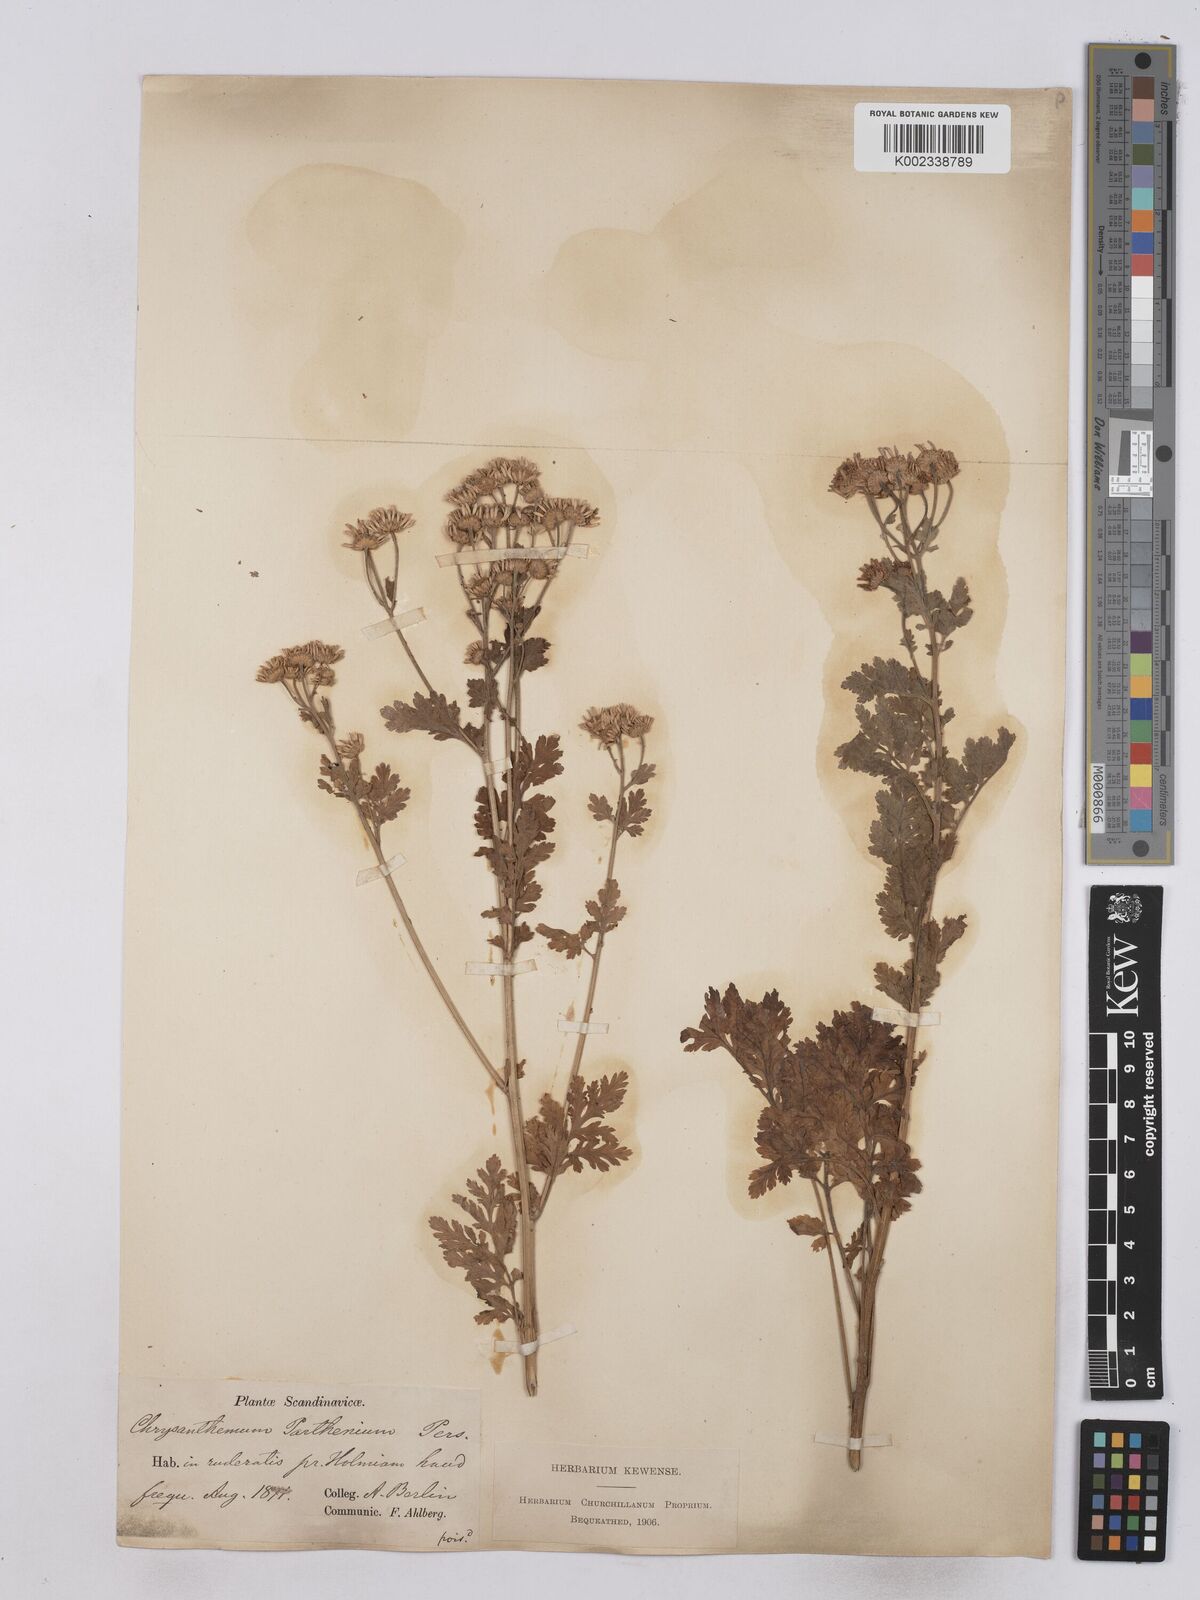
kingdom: Plantae
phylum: Tracheophyta
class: Magnoliopsida
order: Asterales
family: Asteraceae
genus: Tanacetum
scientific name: Tanacetum parthenium
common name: Feverfew
